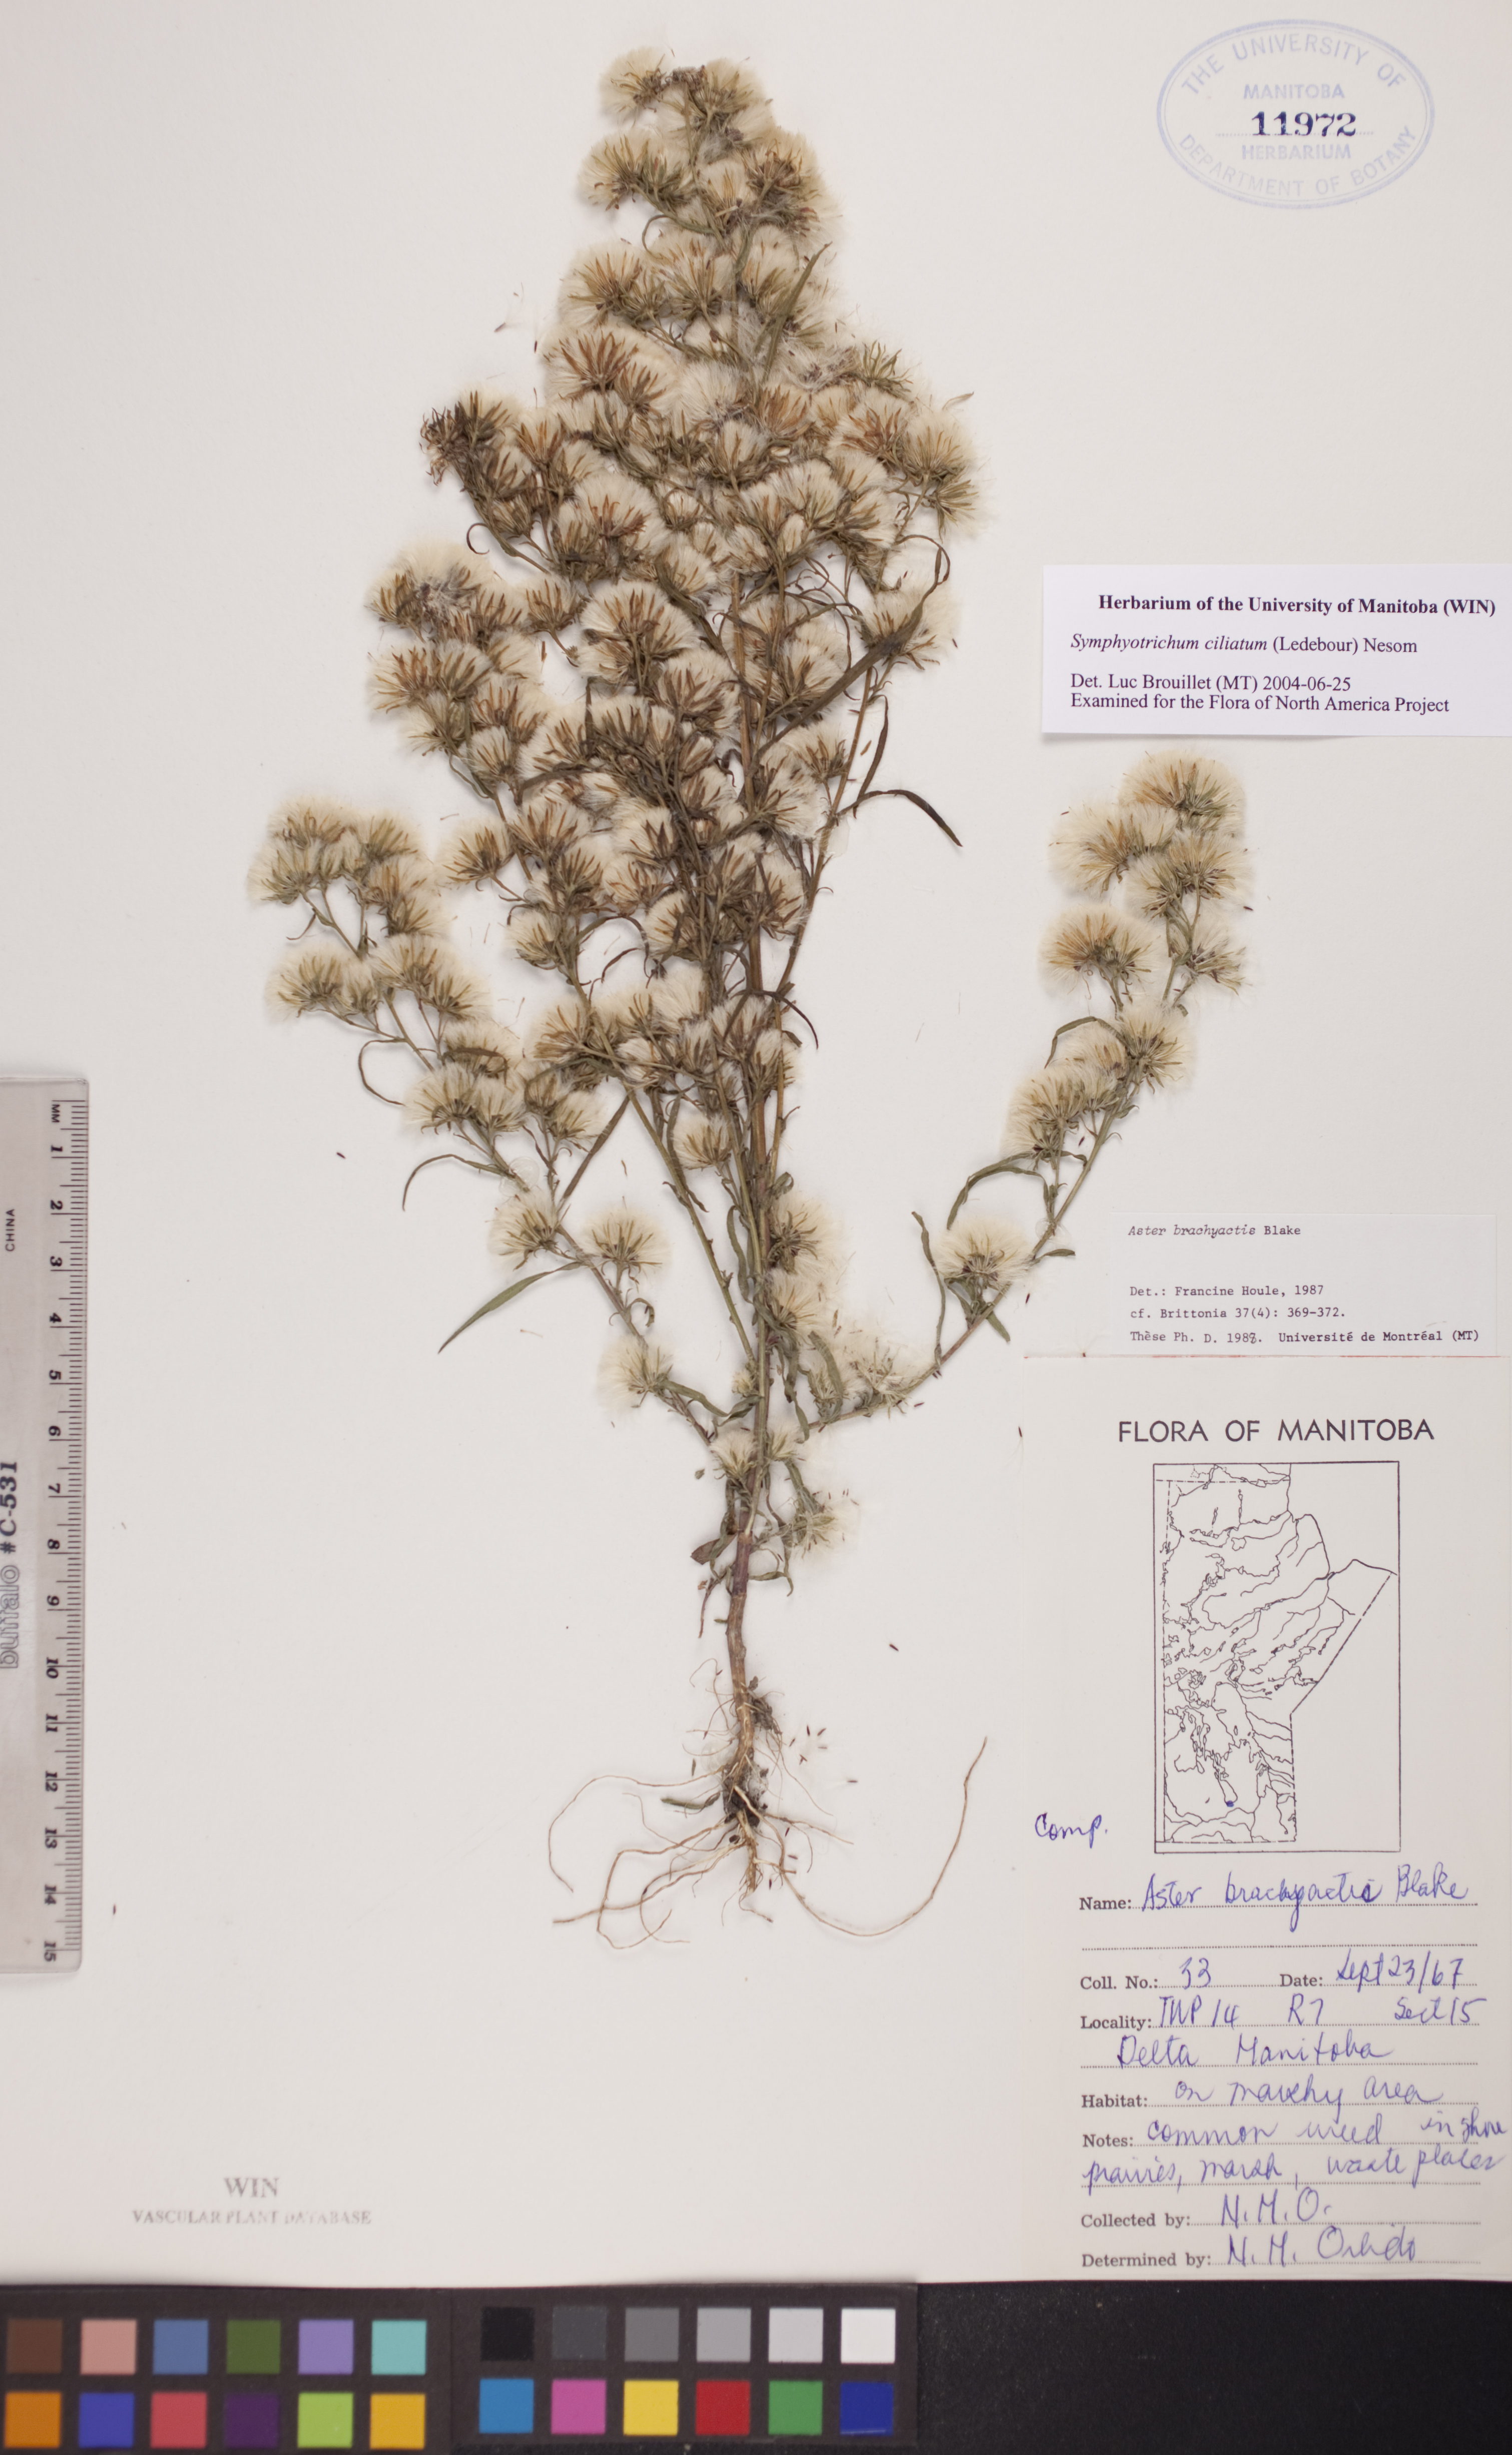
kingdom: Plantae
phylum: Tracheophyta
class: Magnoliopsida
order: Asterales
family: Asteraceae
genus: Symphyotrichum
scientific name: Symphyotrichum ciliatum
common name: Rayless annual aster
